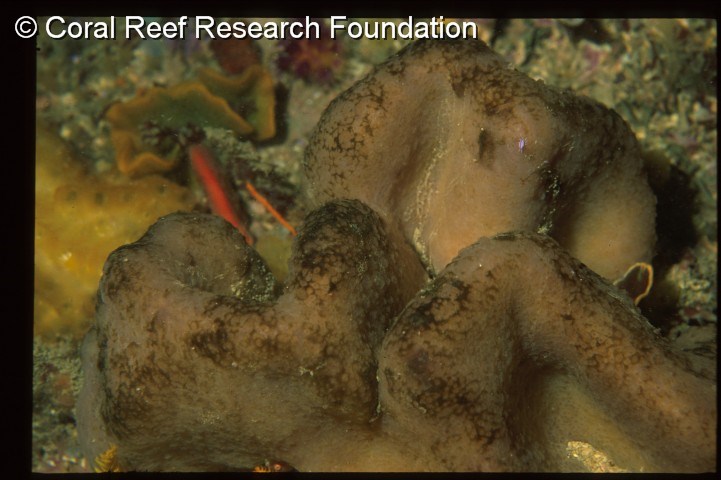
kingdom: Animalia
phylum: Chordata
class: Ascidiacea
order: Aplousobranchia
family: Polycitoridae
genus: Cystodytes
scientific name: Cystodytes dellechiajei
